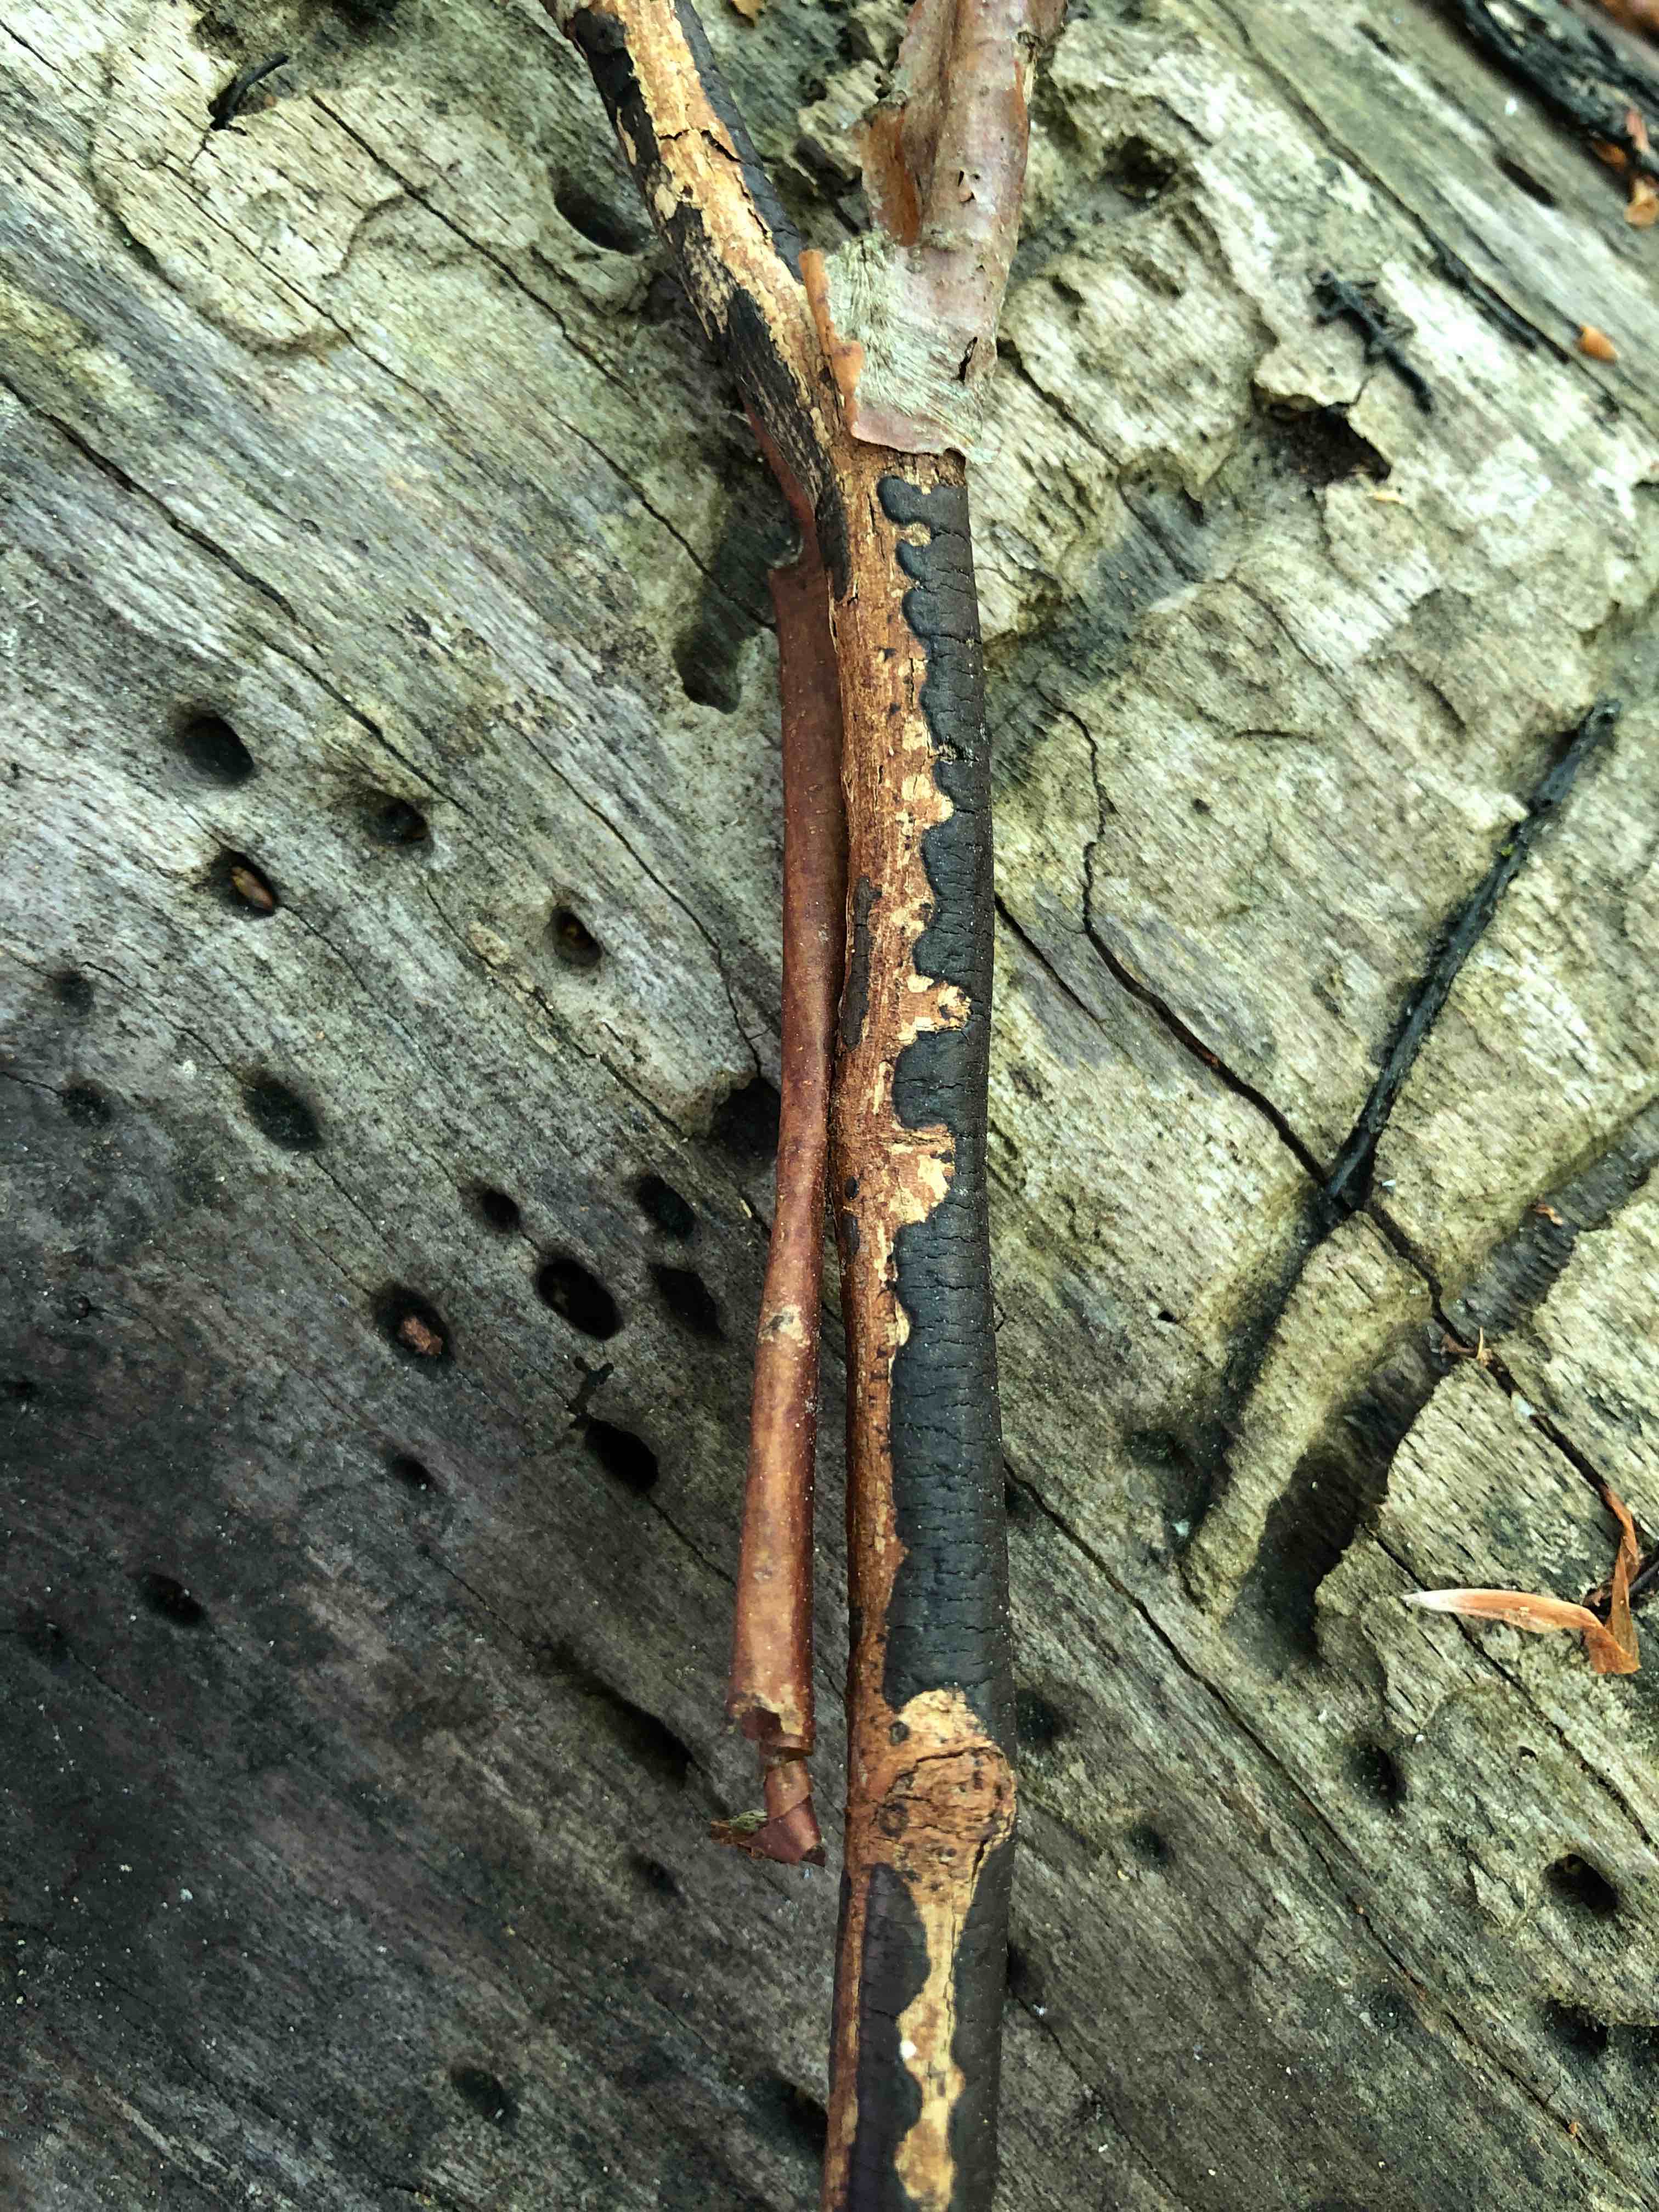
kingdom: Fungi
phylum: Ascomycota
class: Sordariomycetes
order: Xylariales
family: Diatrypaceae
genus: Diatrype
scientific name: Diatrype decorticata
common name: barksprænger-kulskorpe
